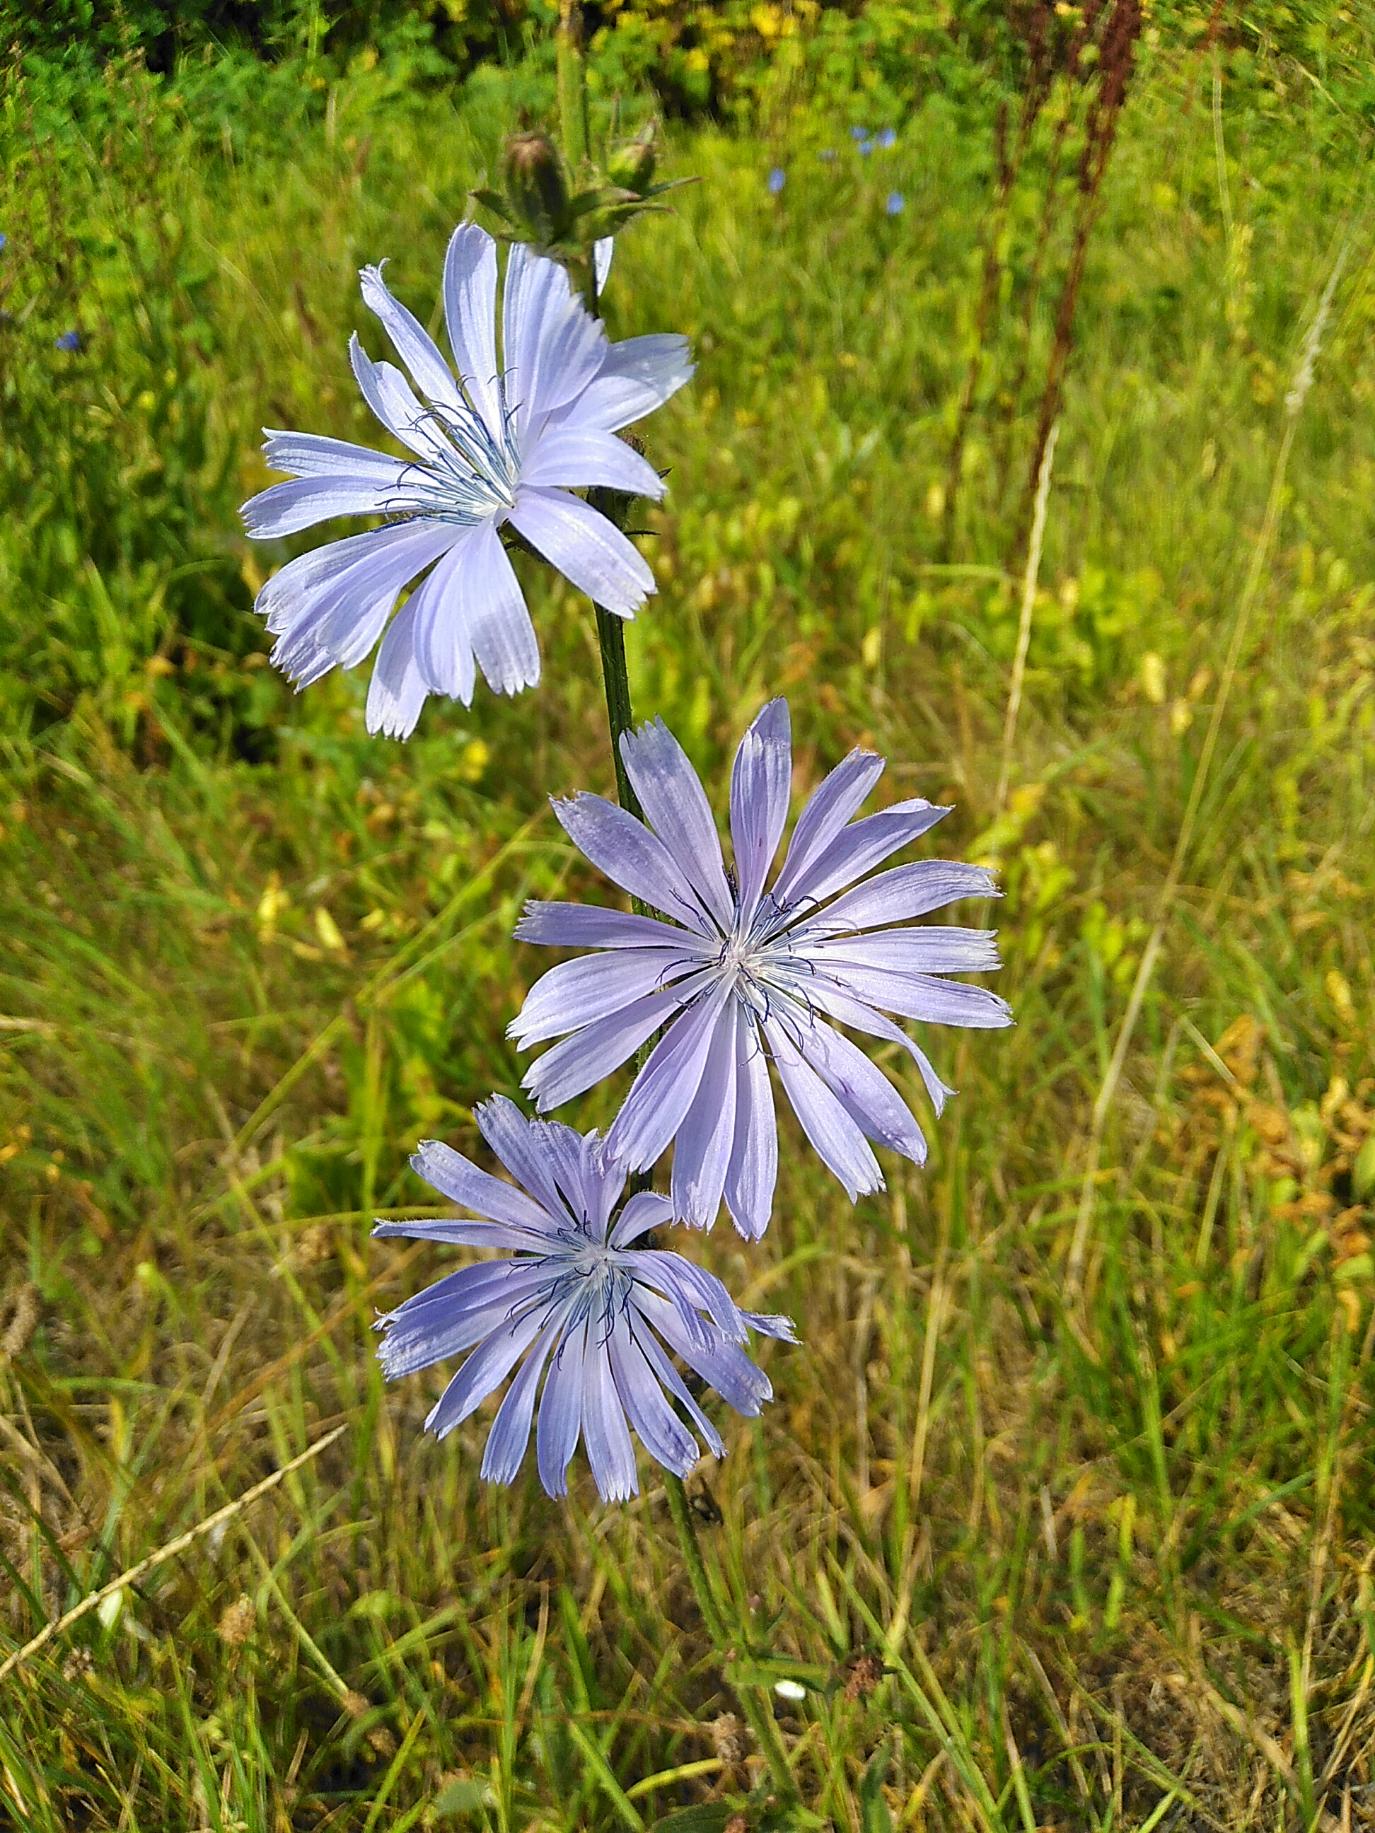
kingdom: Plantae
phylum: Tracheophyta
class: Magnoliopsida
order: Asterales
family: Asteraceae
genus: Cichorium
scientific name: Cichorium intybus
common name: Cikorie
